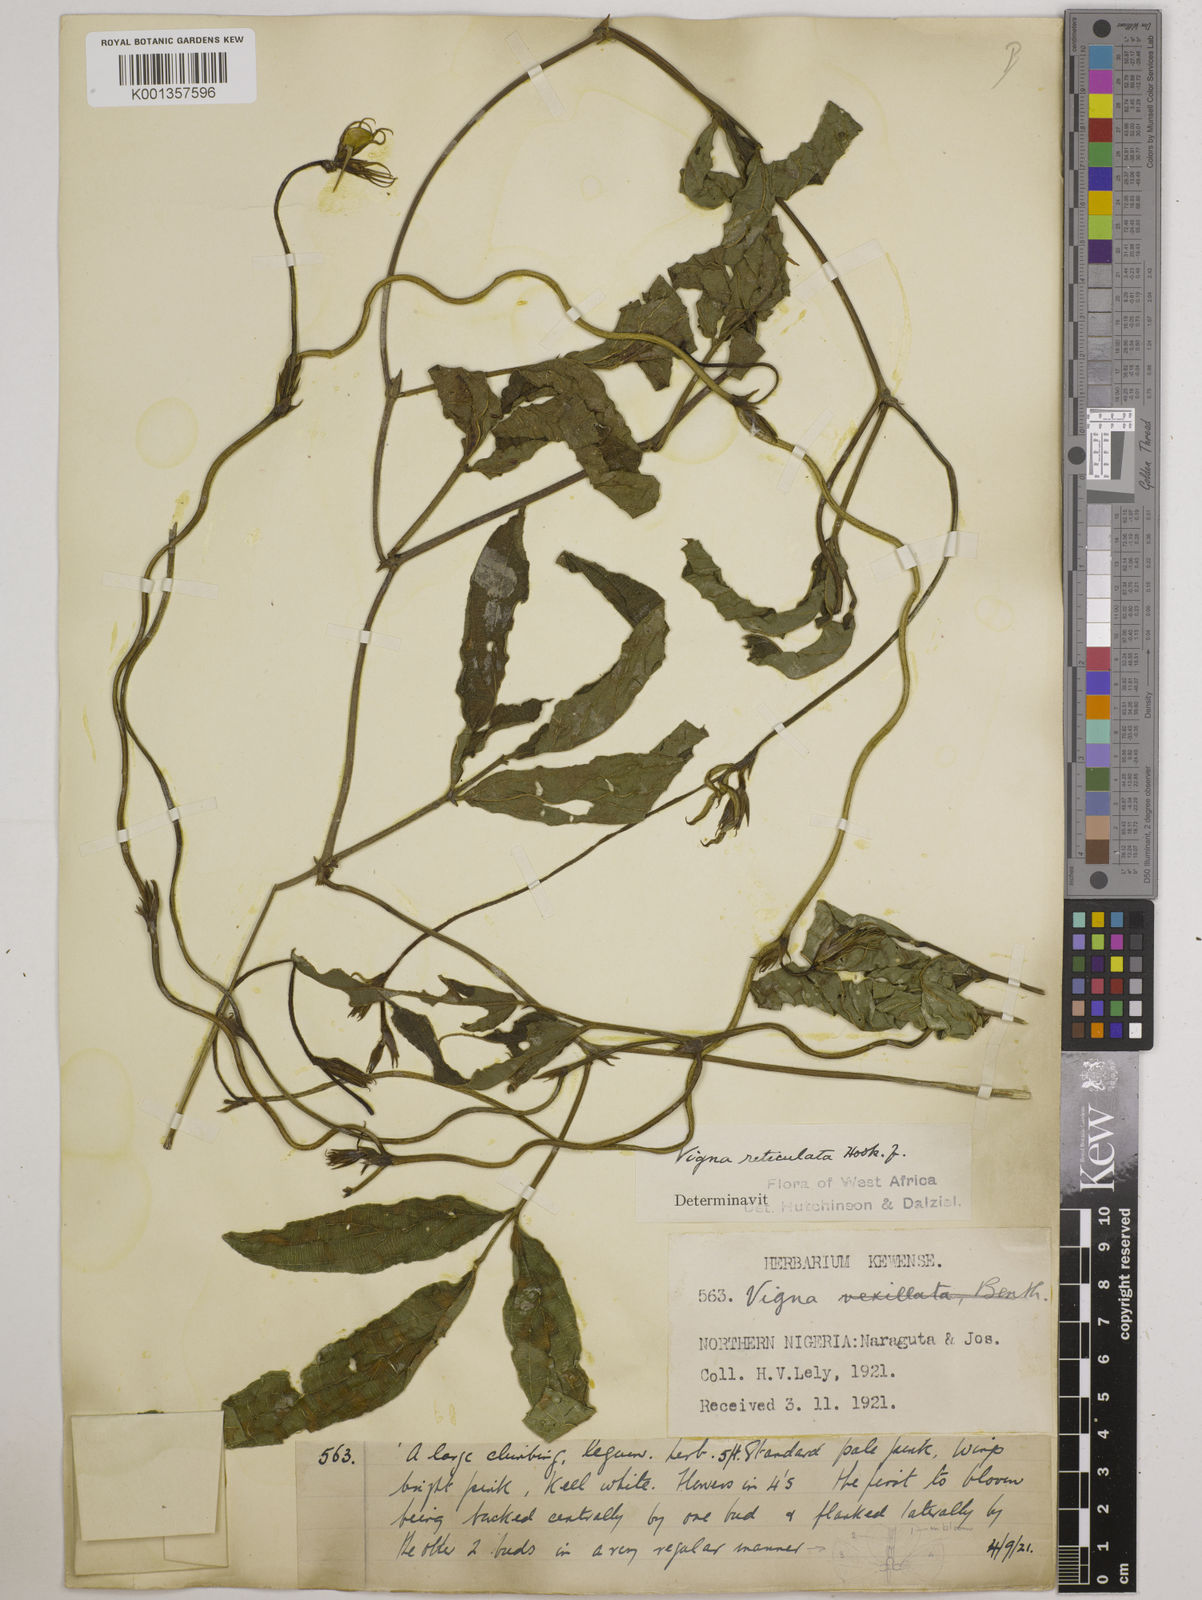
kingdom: Plantae
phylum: Tracheophyta
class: Magnoliopsida
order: Fabales
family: Fabaceae
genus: Vigna
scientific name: Vigna reticulata
